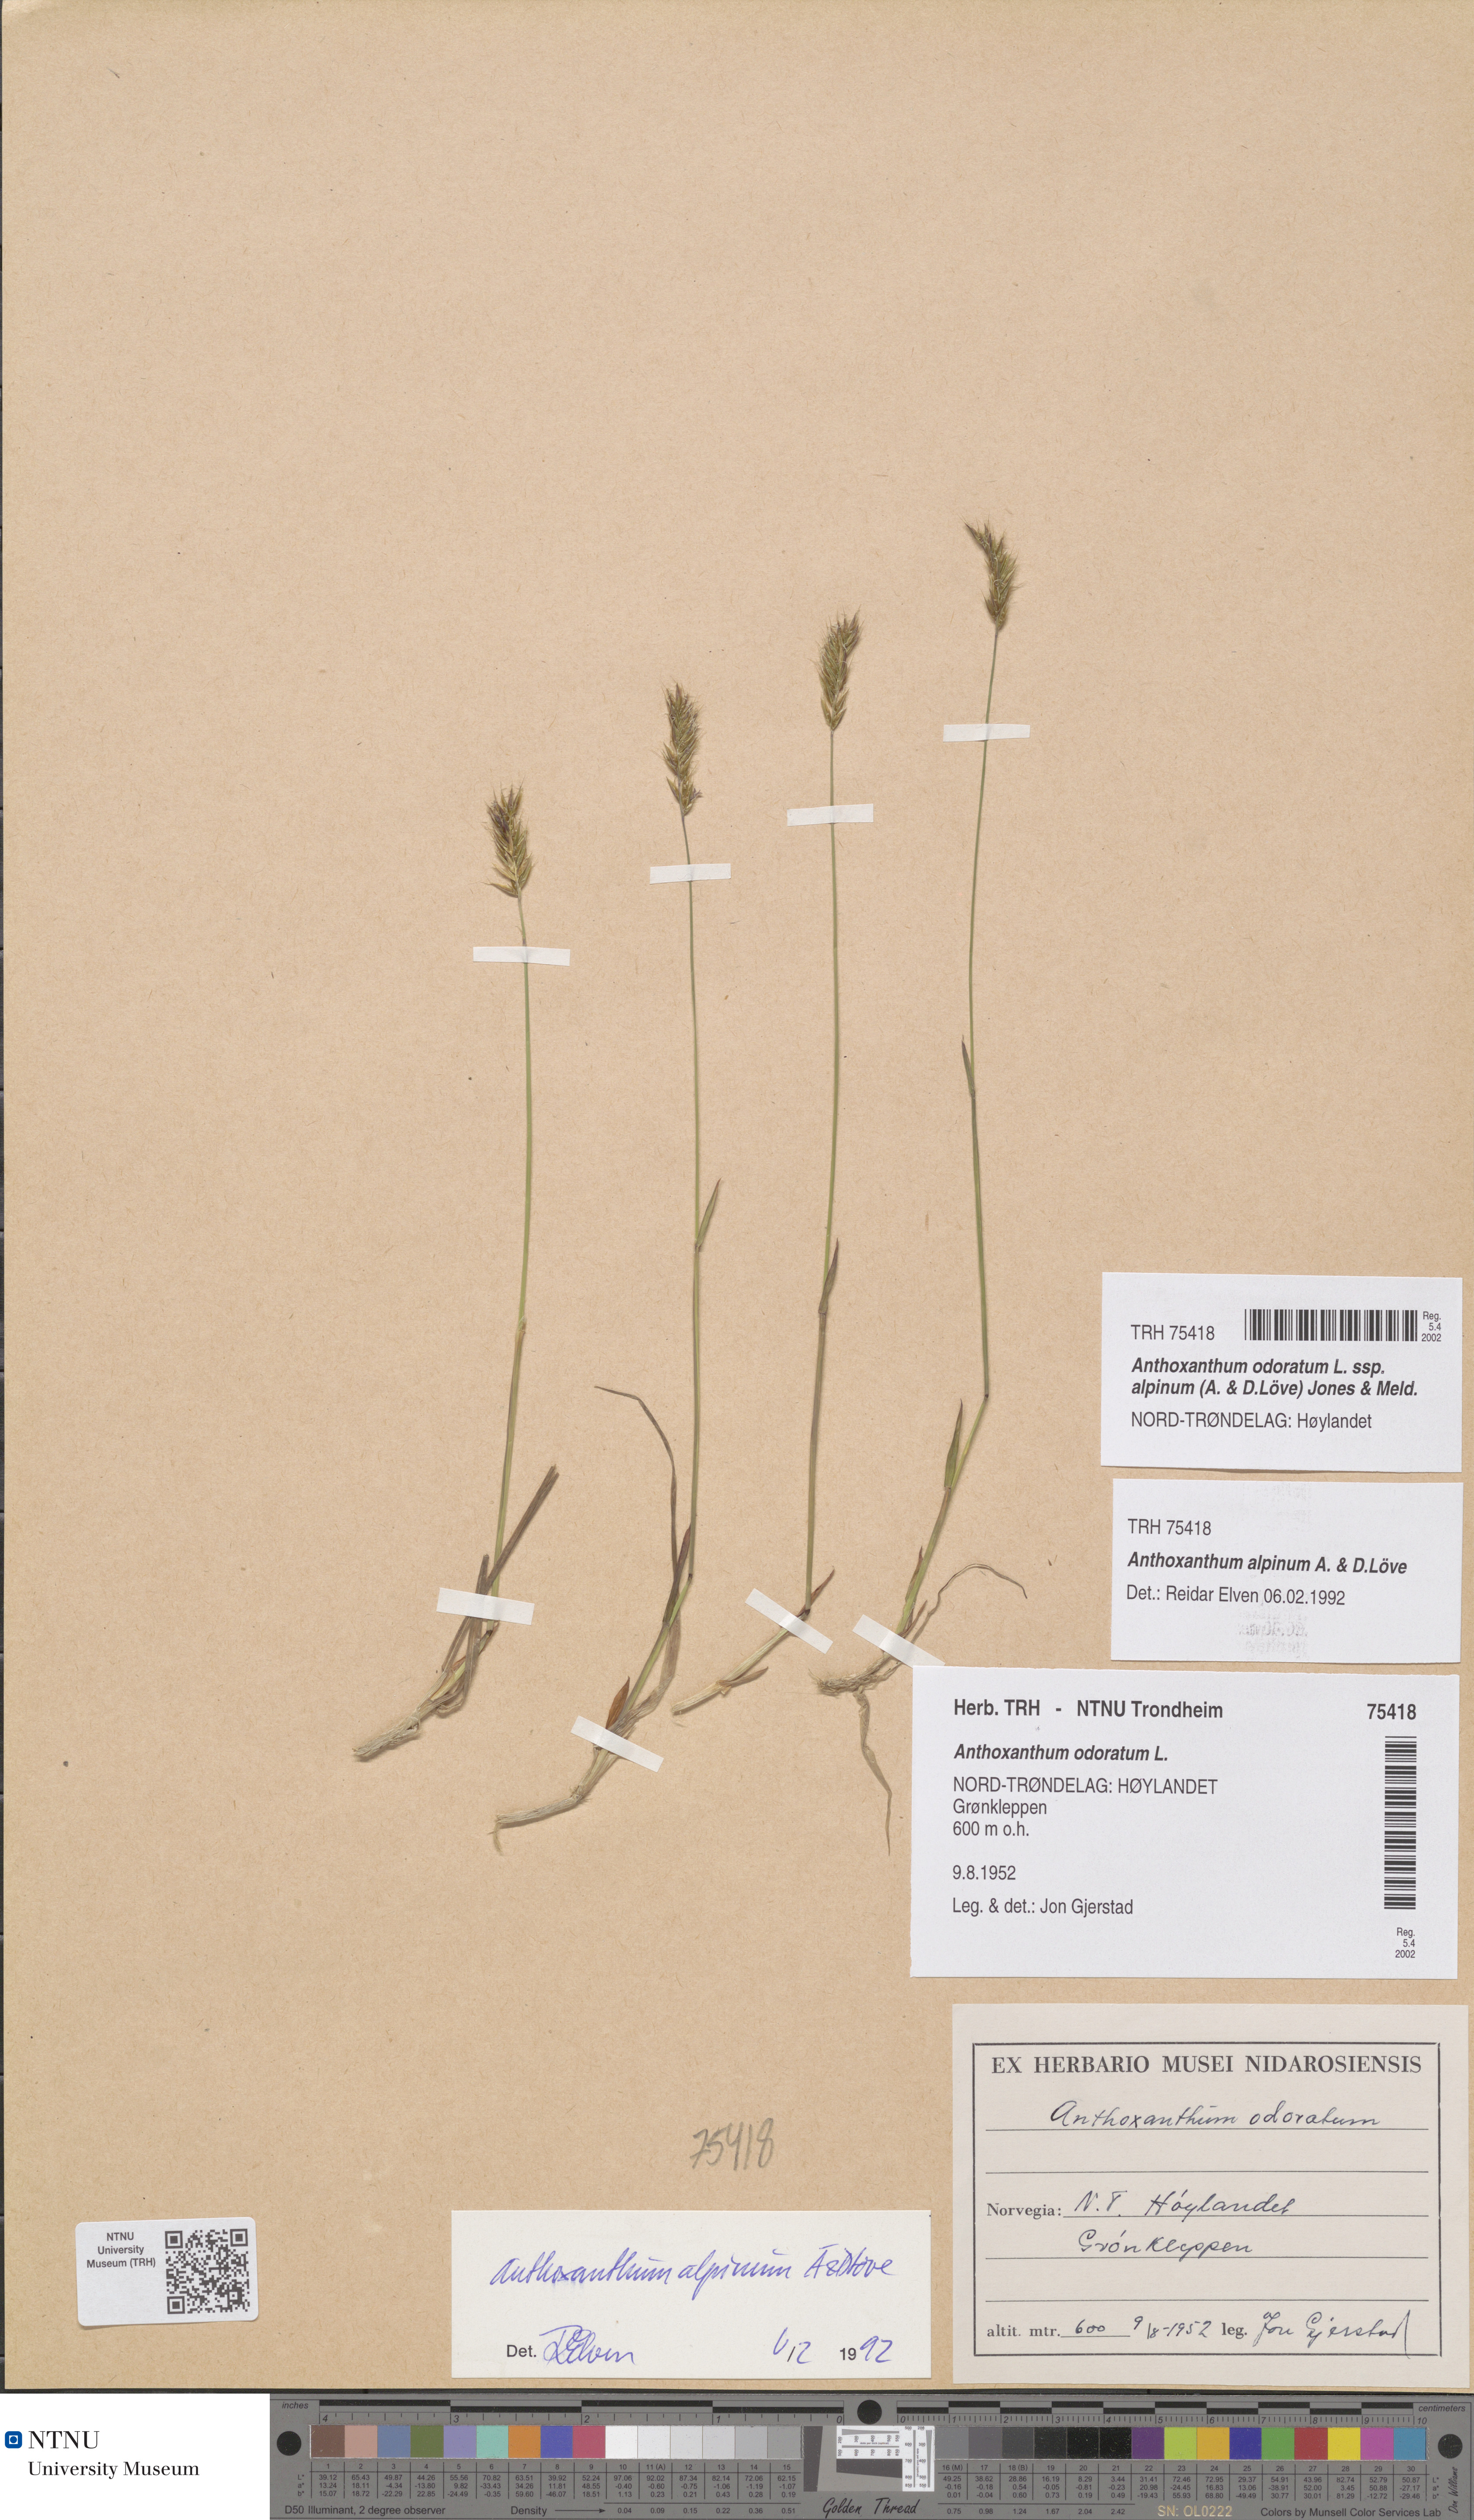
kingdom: Plantae
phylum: Tracheophyta
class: Liliopsida
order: Poales
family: Poaceae
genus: Anthoxanthum
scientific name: Anthoxanthum nipponicum
